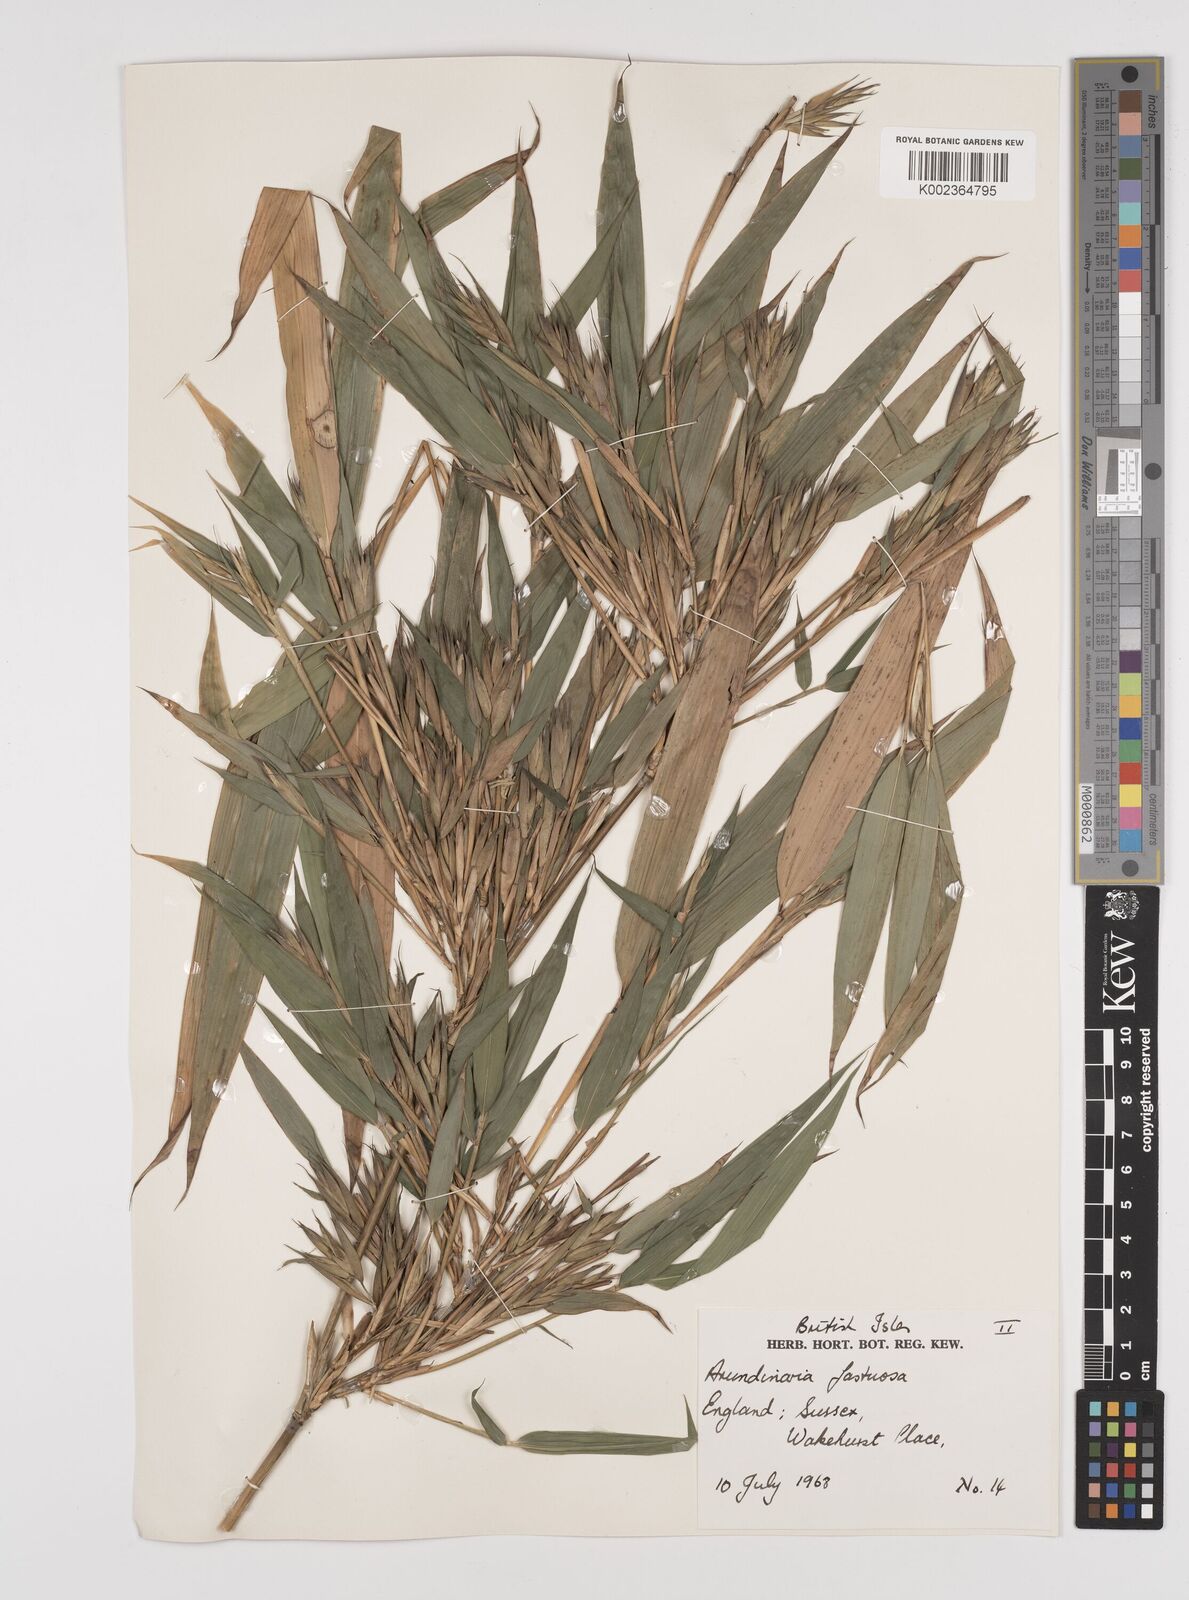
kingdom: Plantae
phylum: Tracheophyta
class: Liliopsida
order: Poales
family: Poaceae
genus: Semiarundinaria
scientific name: Semiarundinaria
